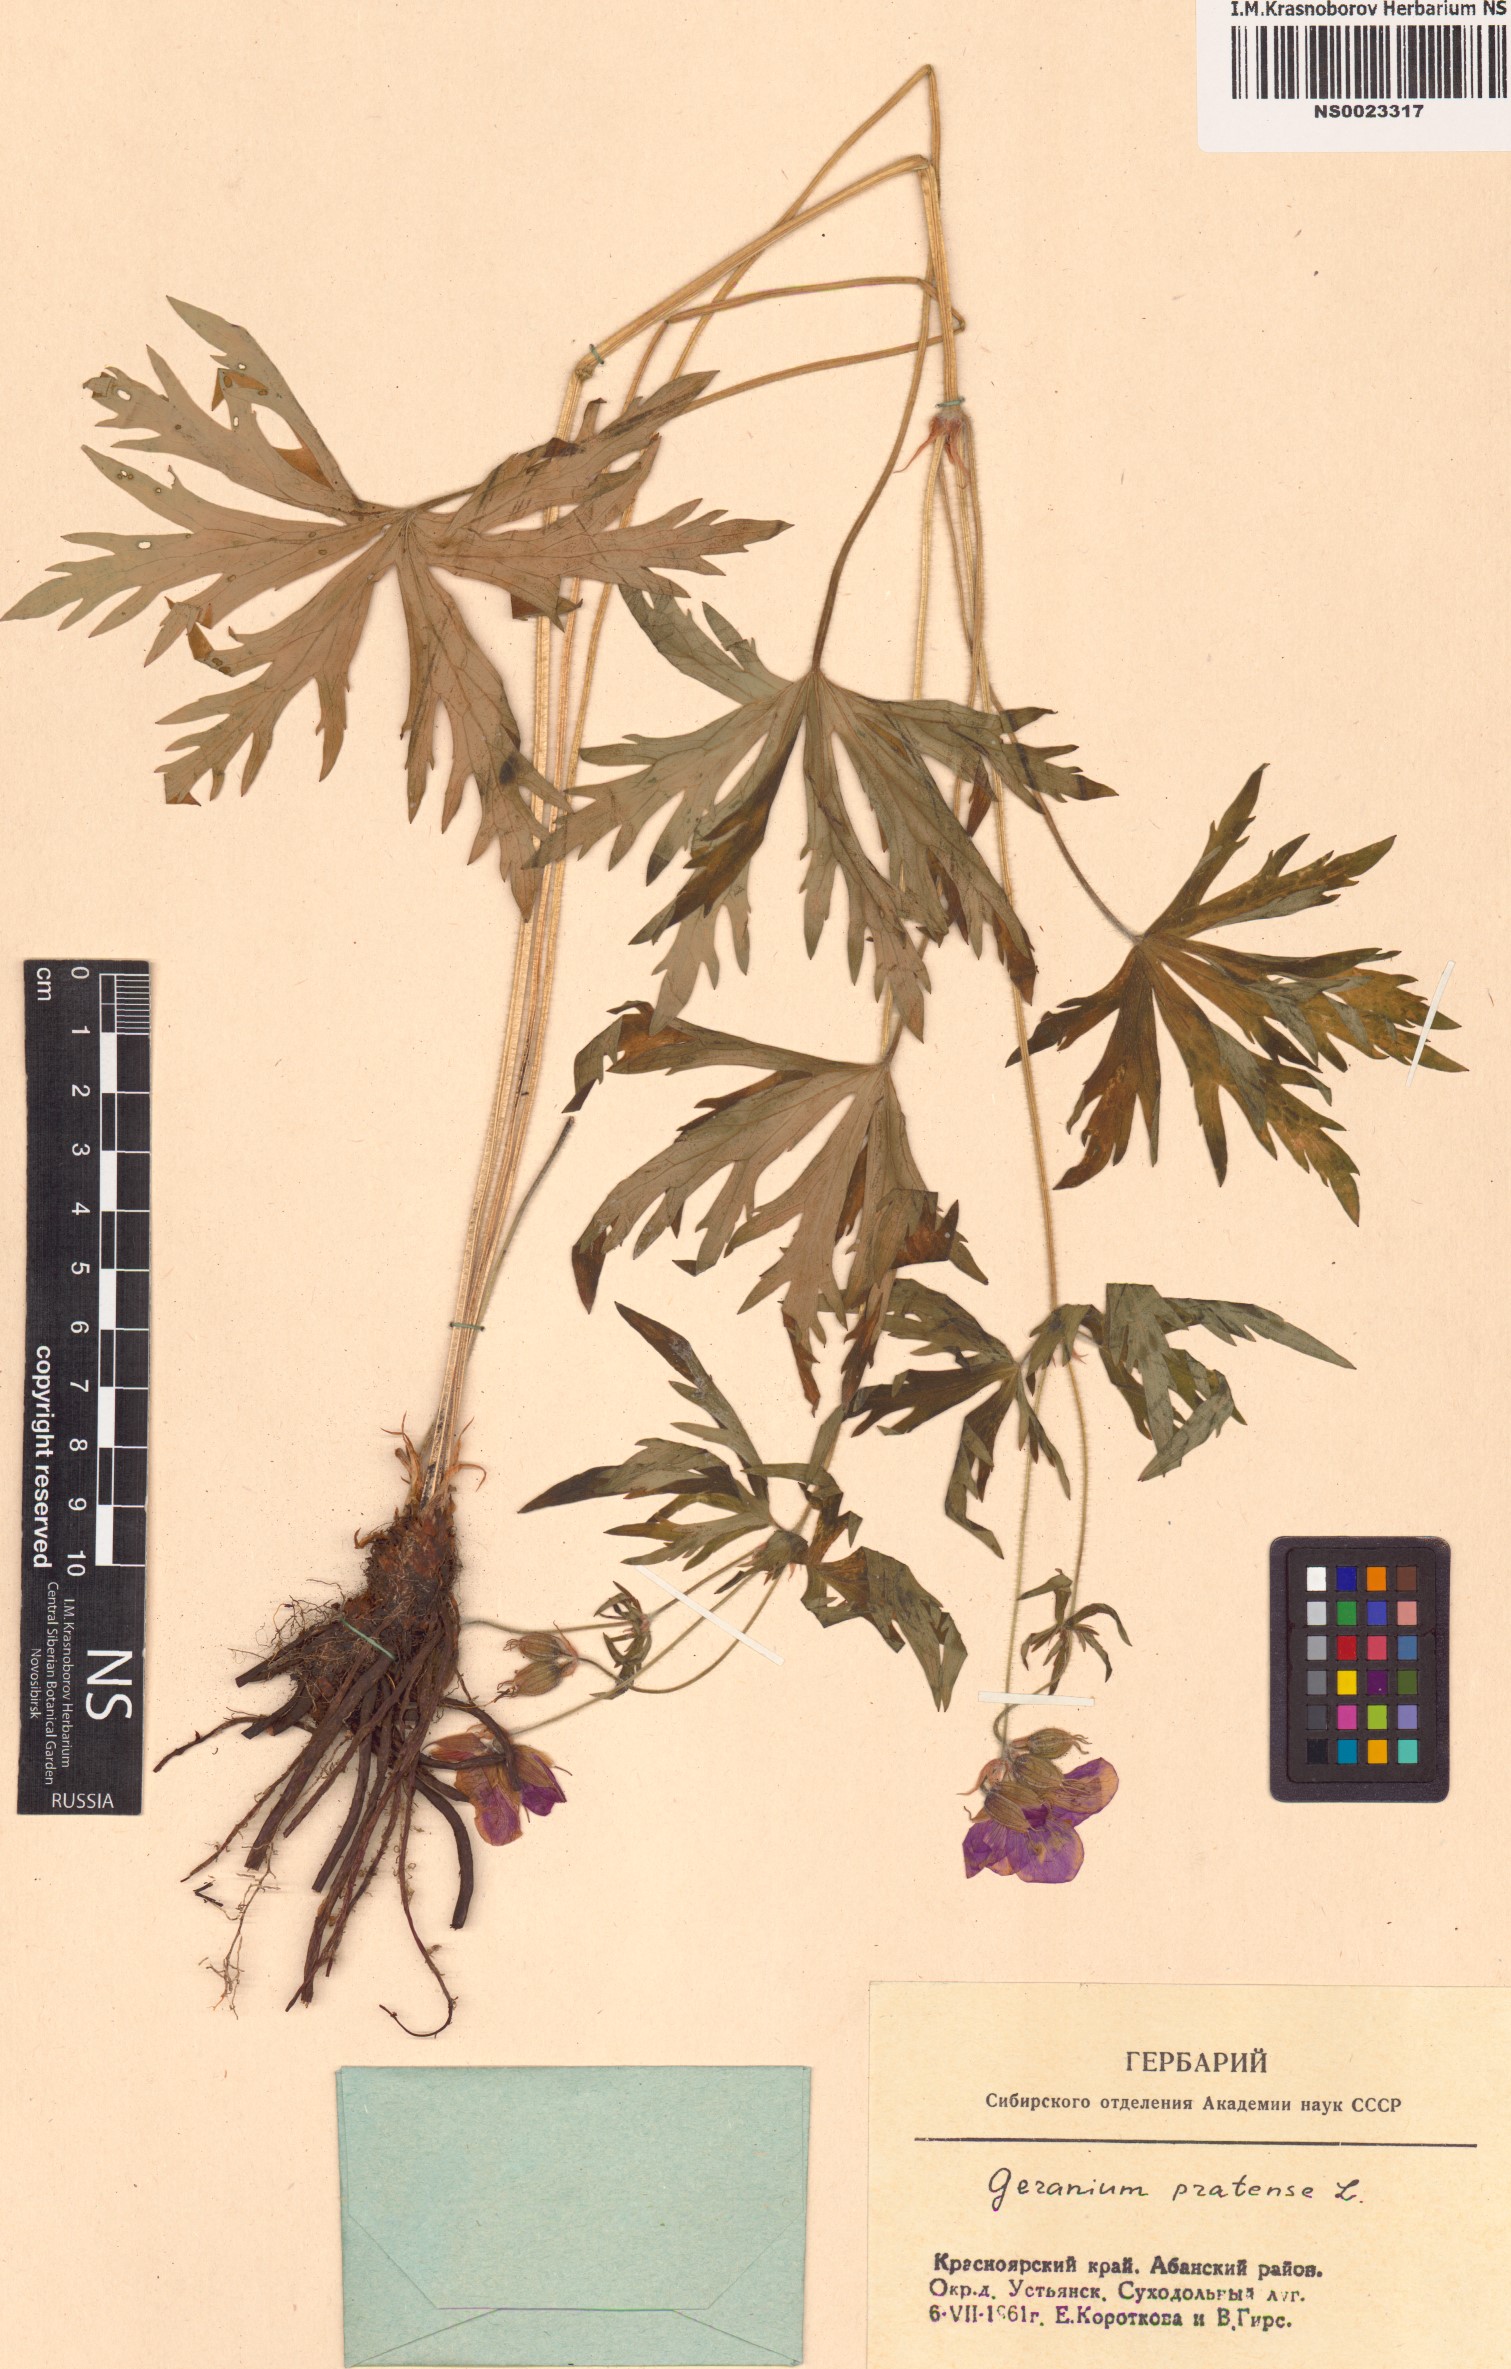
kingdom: Plantae
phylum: Tracheophyta
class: Magnoliopsida
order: Geraniales
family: Geraniaceae
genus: Geranium
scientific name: Geranium pratense
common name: Meadow crane's-bill
